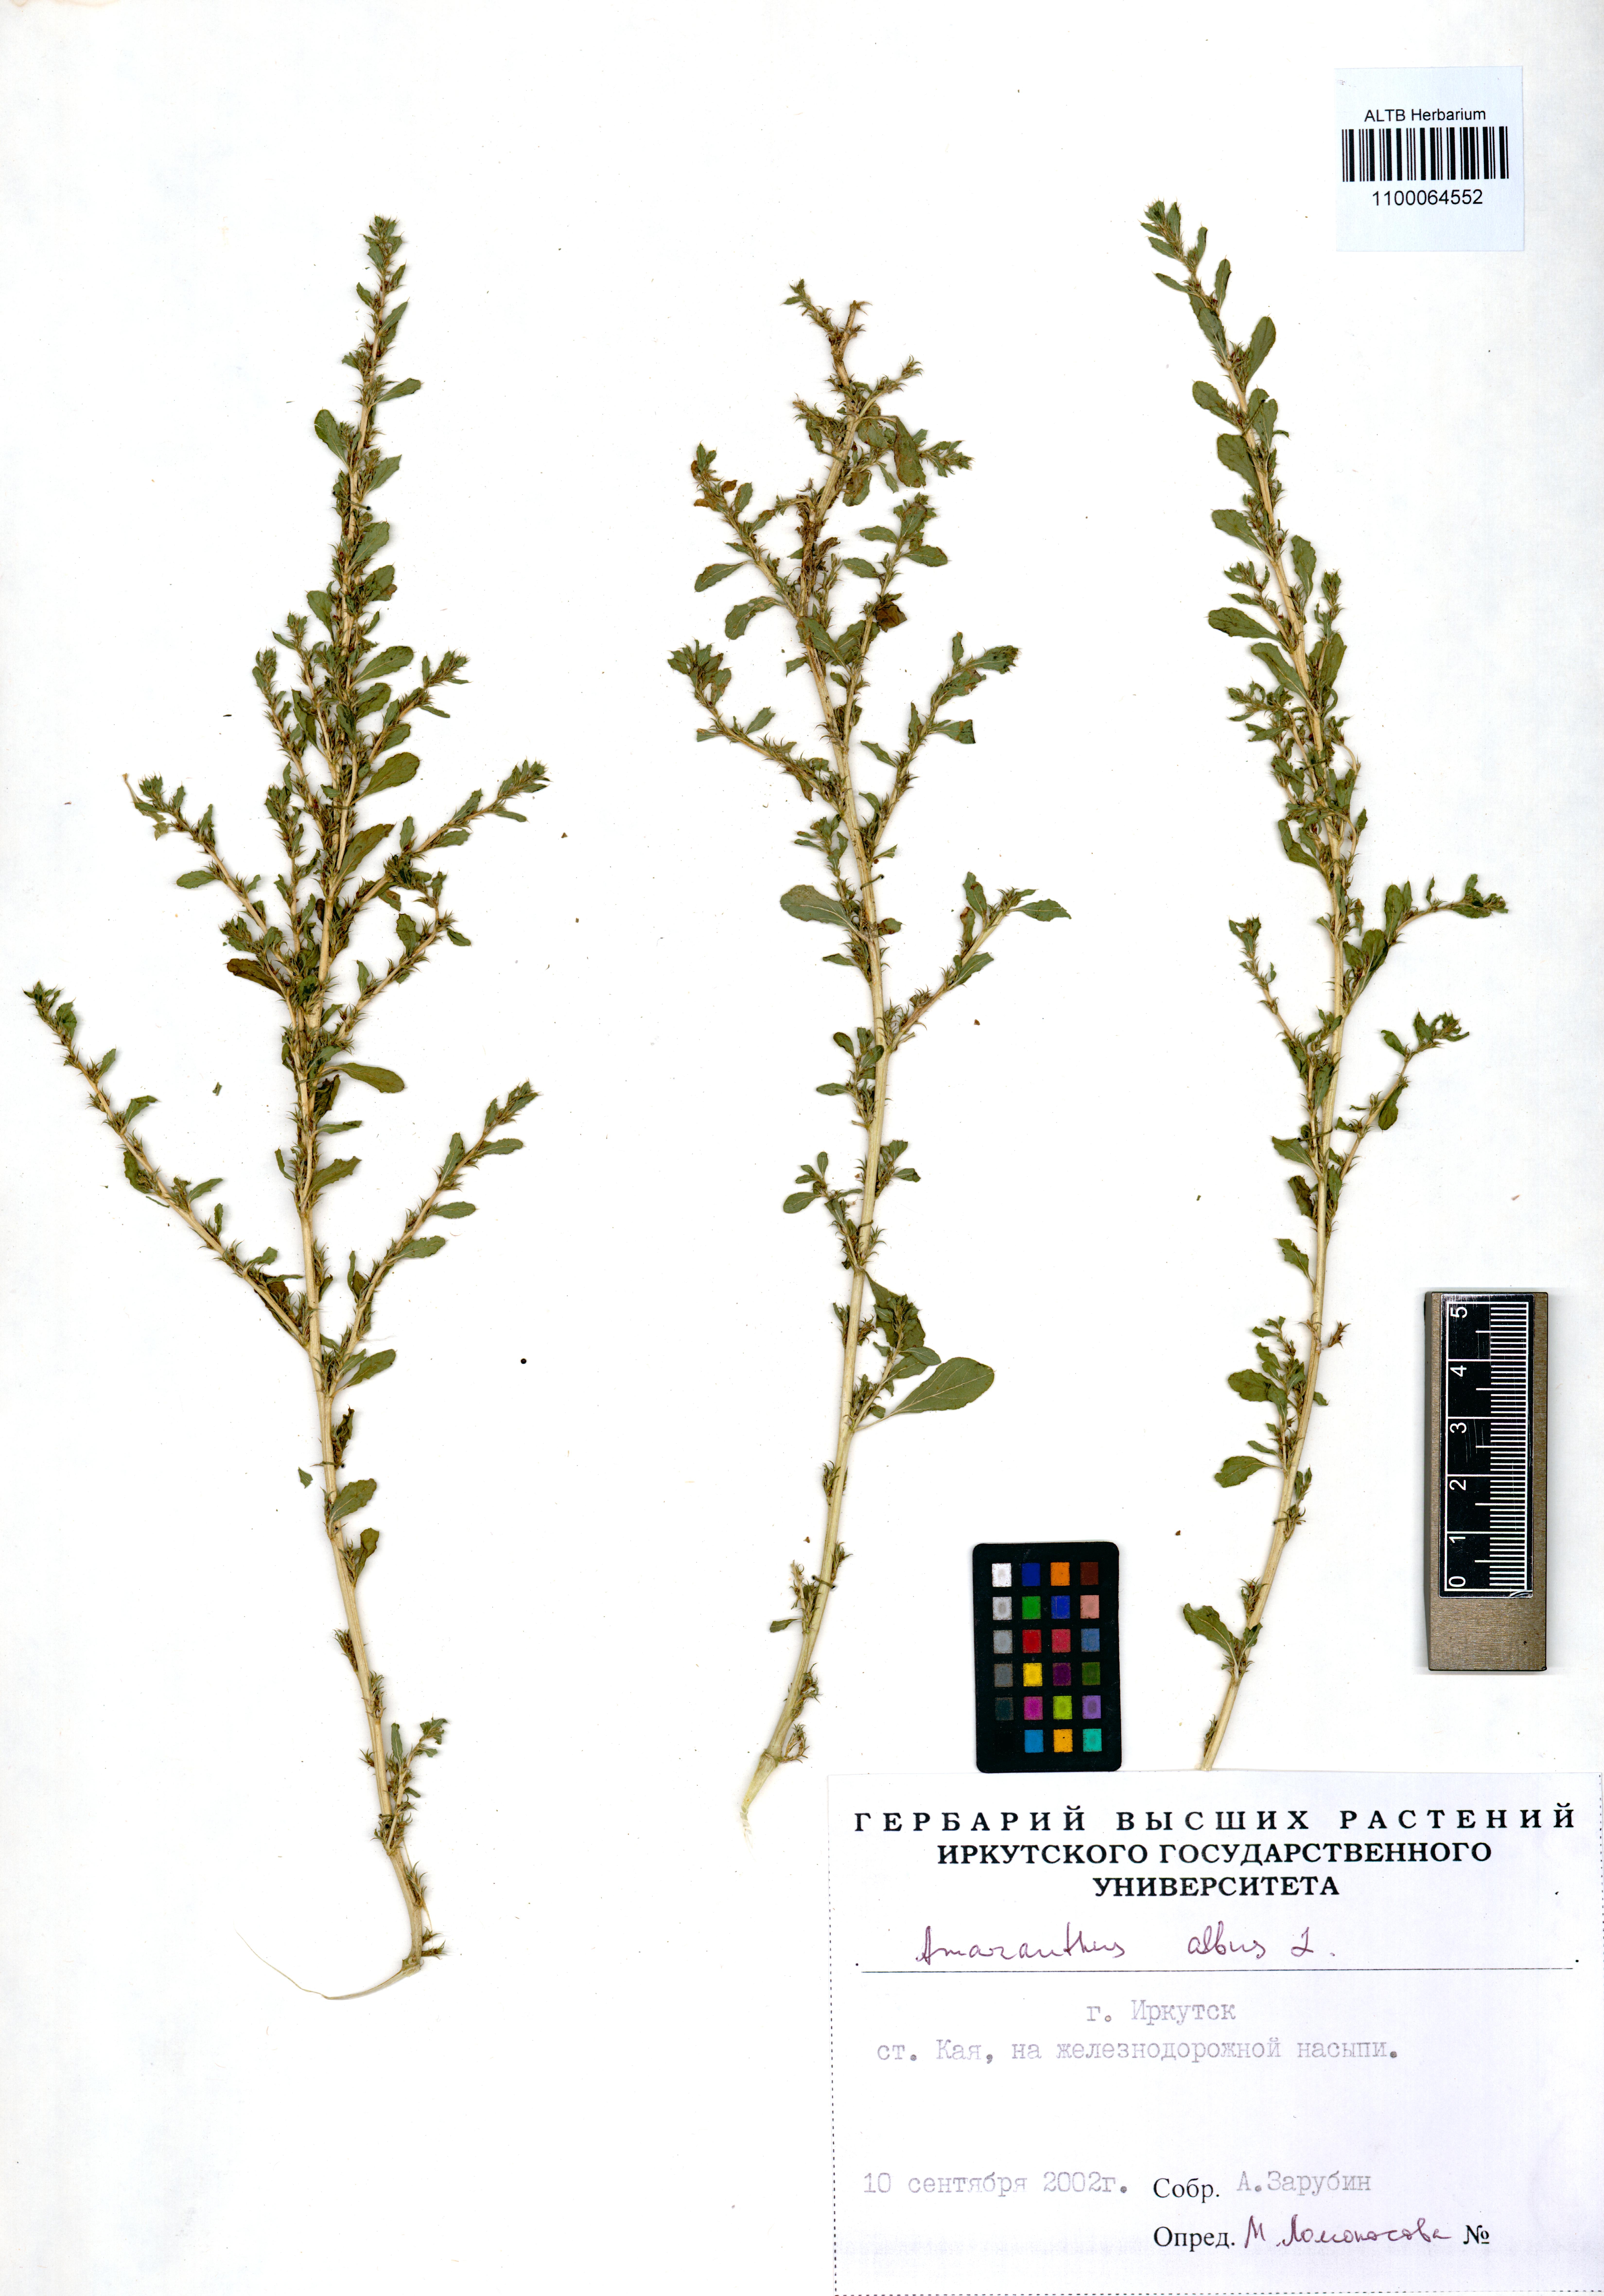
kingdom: Plantae
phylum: Tracheophyta
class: Magnoliopsida
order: Caryophyllales
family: Amaranthaceae
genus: Amaranthus
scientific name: Amaranthus albus
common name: White pigweed
